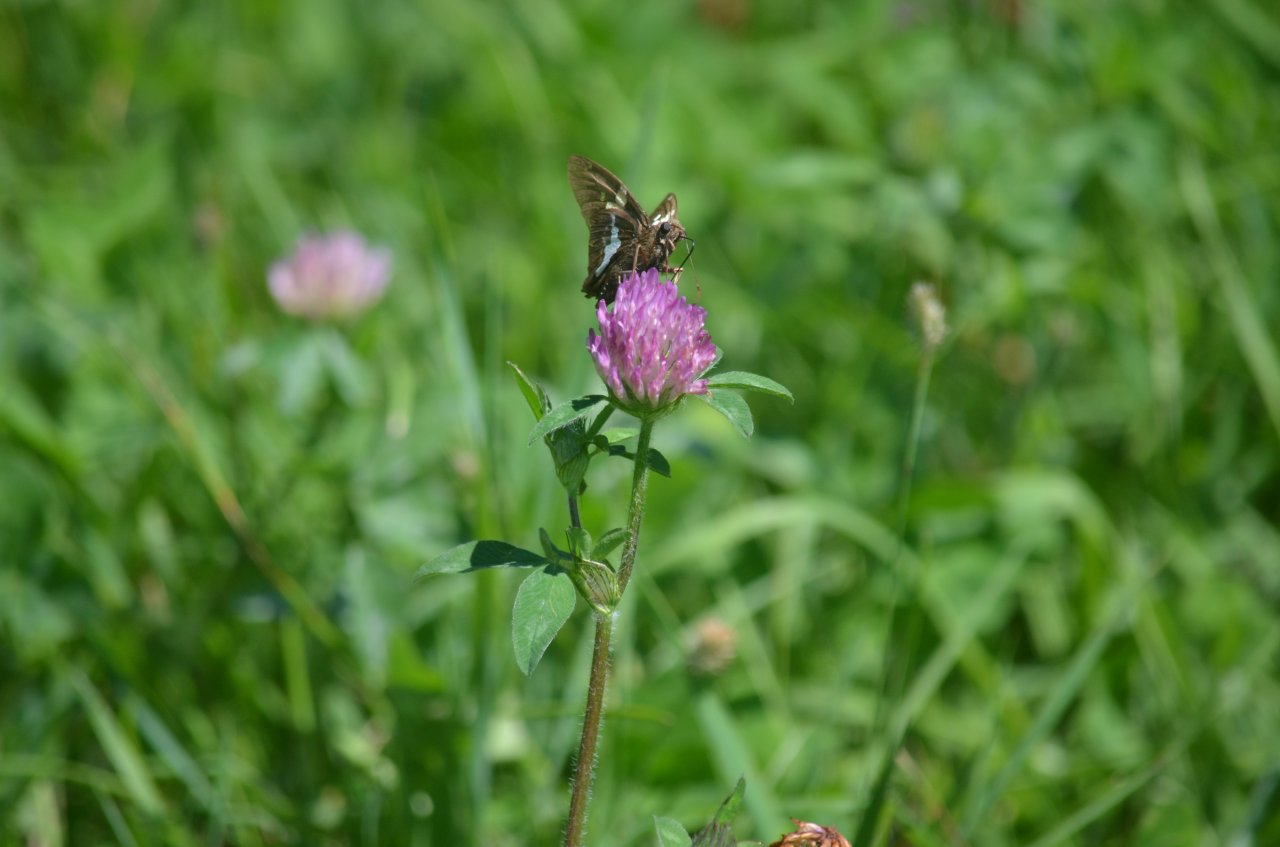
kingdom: Animalia
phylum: Arthropoda
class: Insecta
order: Lepidoptera
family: Hesperiidae
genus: Epargyreus
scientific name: Epargyreus clarus
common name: Silver-spotted Skipper
